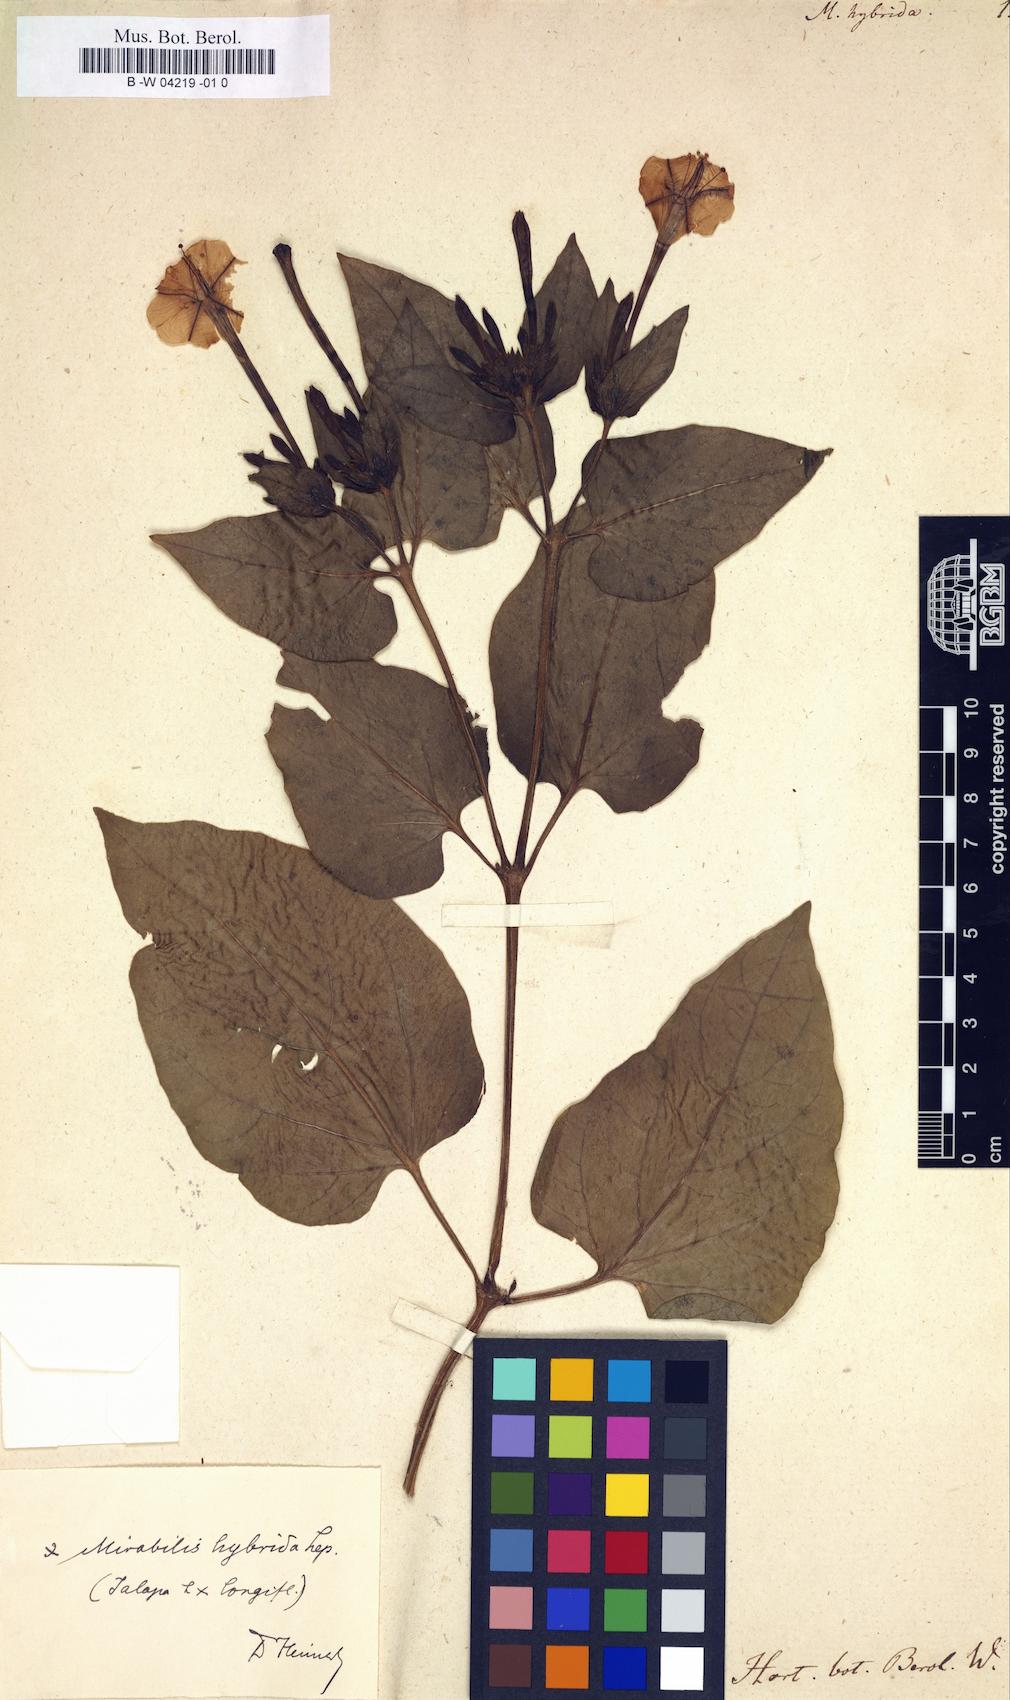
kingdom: Plantae
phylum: Tracheophyta
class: Magnoliopsida
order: Caryophyllales
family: Nyctaginaceae
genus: Mirabilis
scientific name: Mirabilis jalapa
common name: Marvel-of-peru
